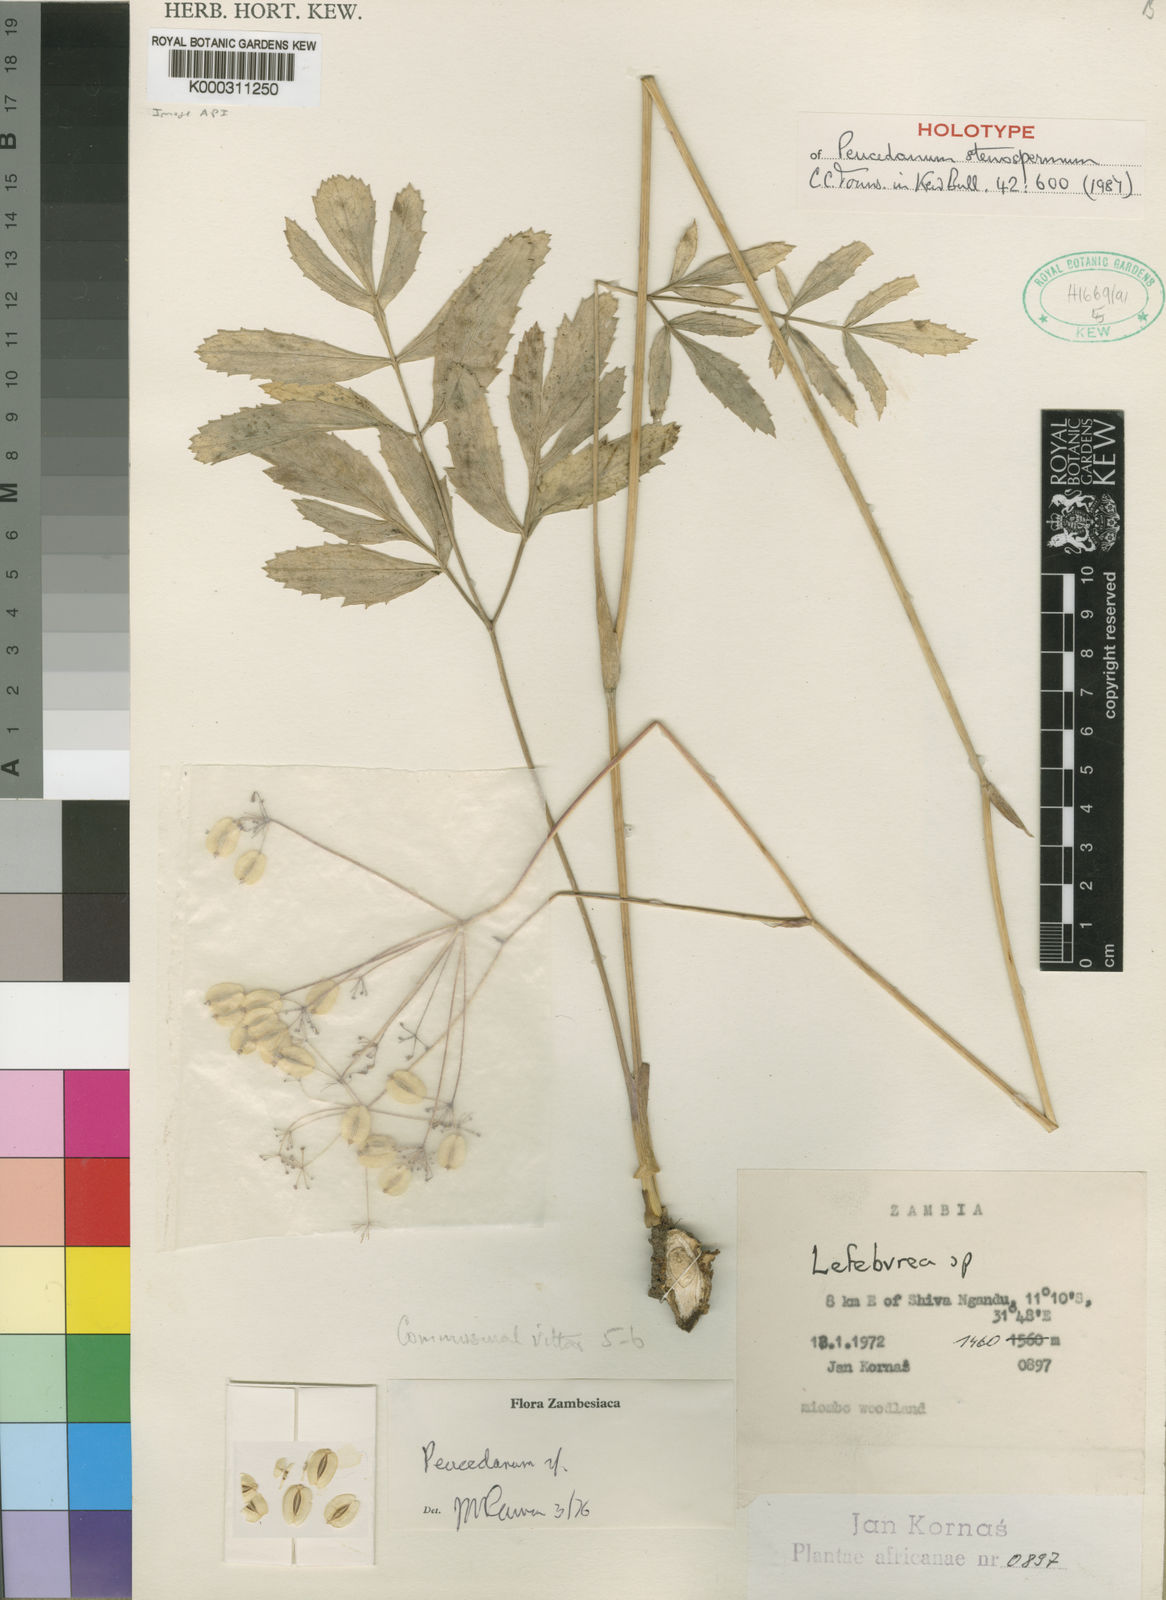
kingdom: Plantae
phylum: Tracheophyta
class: Magnoliopsida
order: Apiales
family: Apiaceae
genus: Lefebvrea
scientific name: Lefebvrea stenosperma
